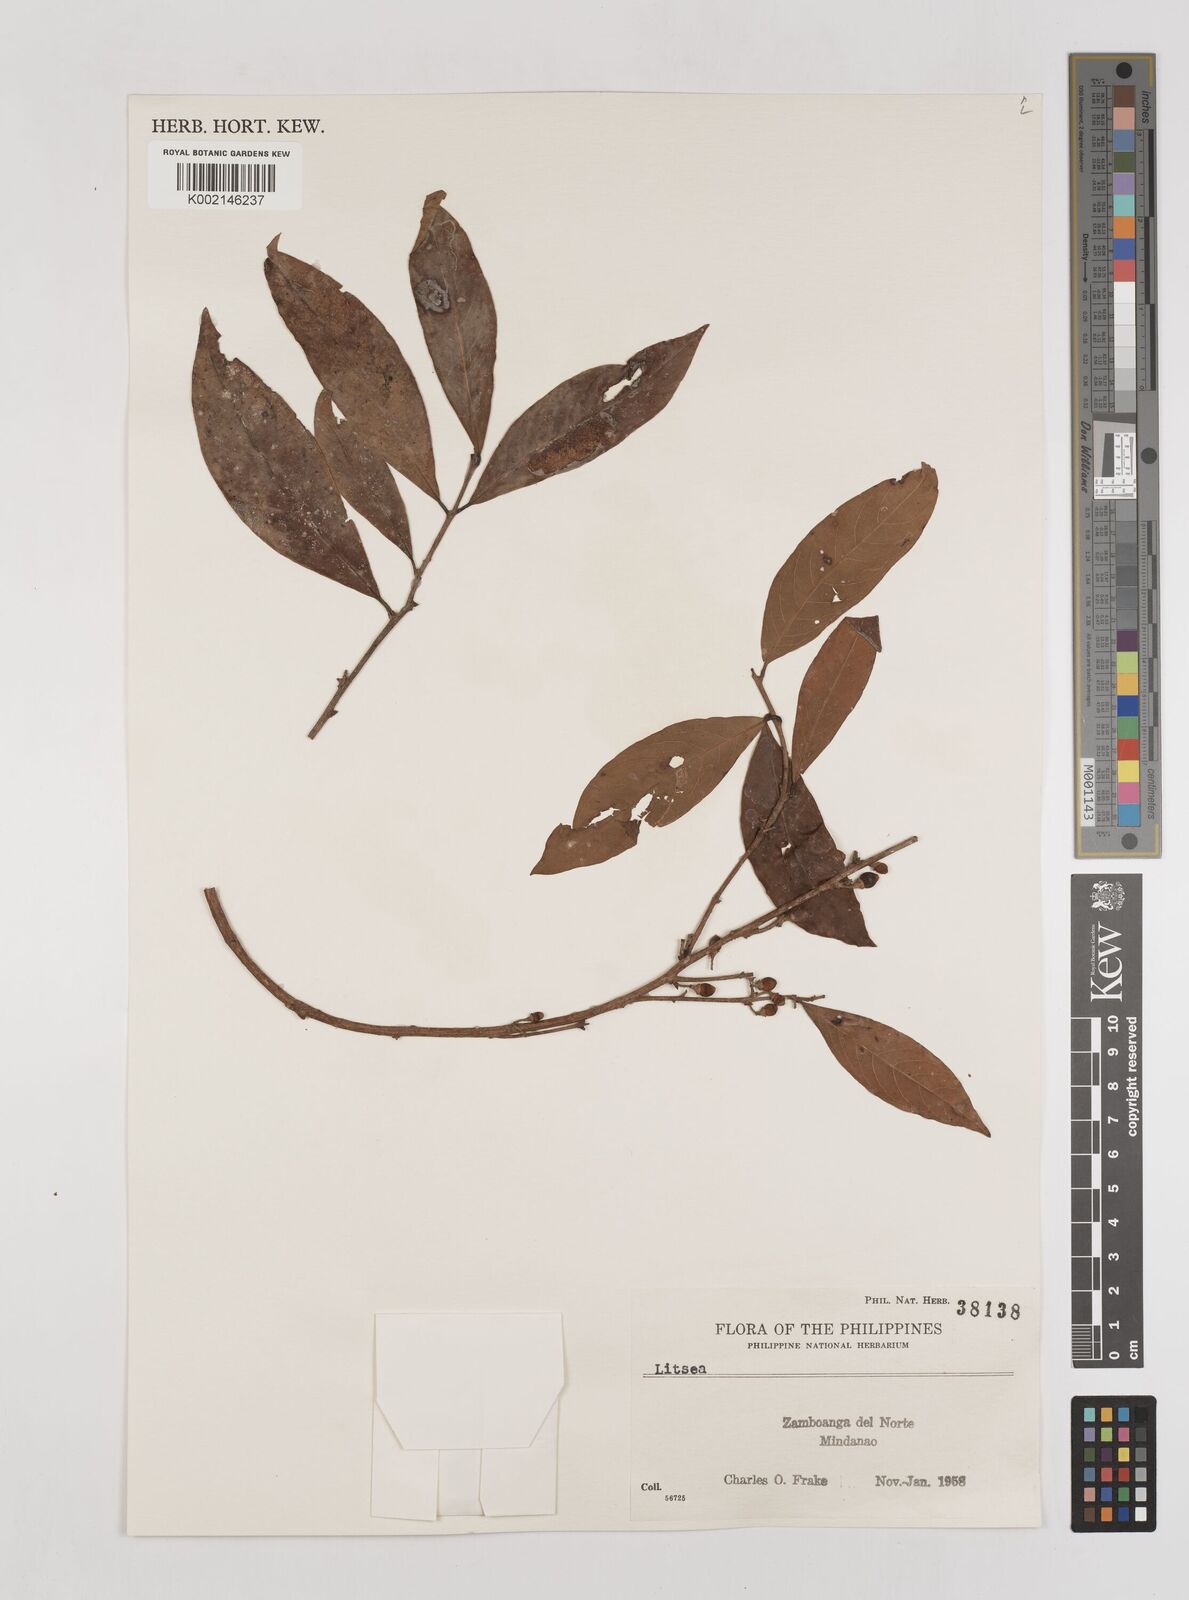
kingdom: Plantae
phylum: Tracheophyta
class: Magnoliopsida
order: Laurales
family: Lauraceae
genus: Litsea
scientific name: Litsea
